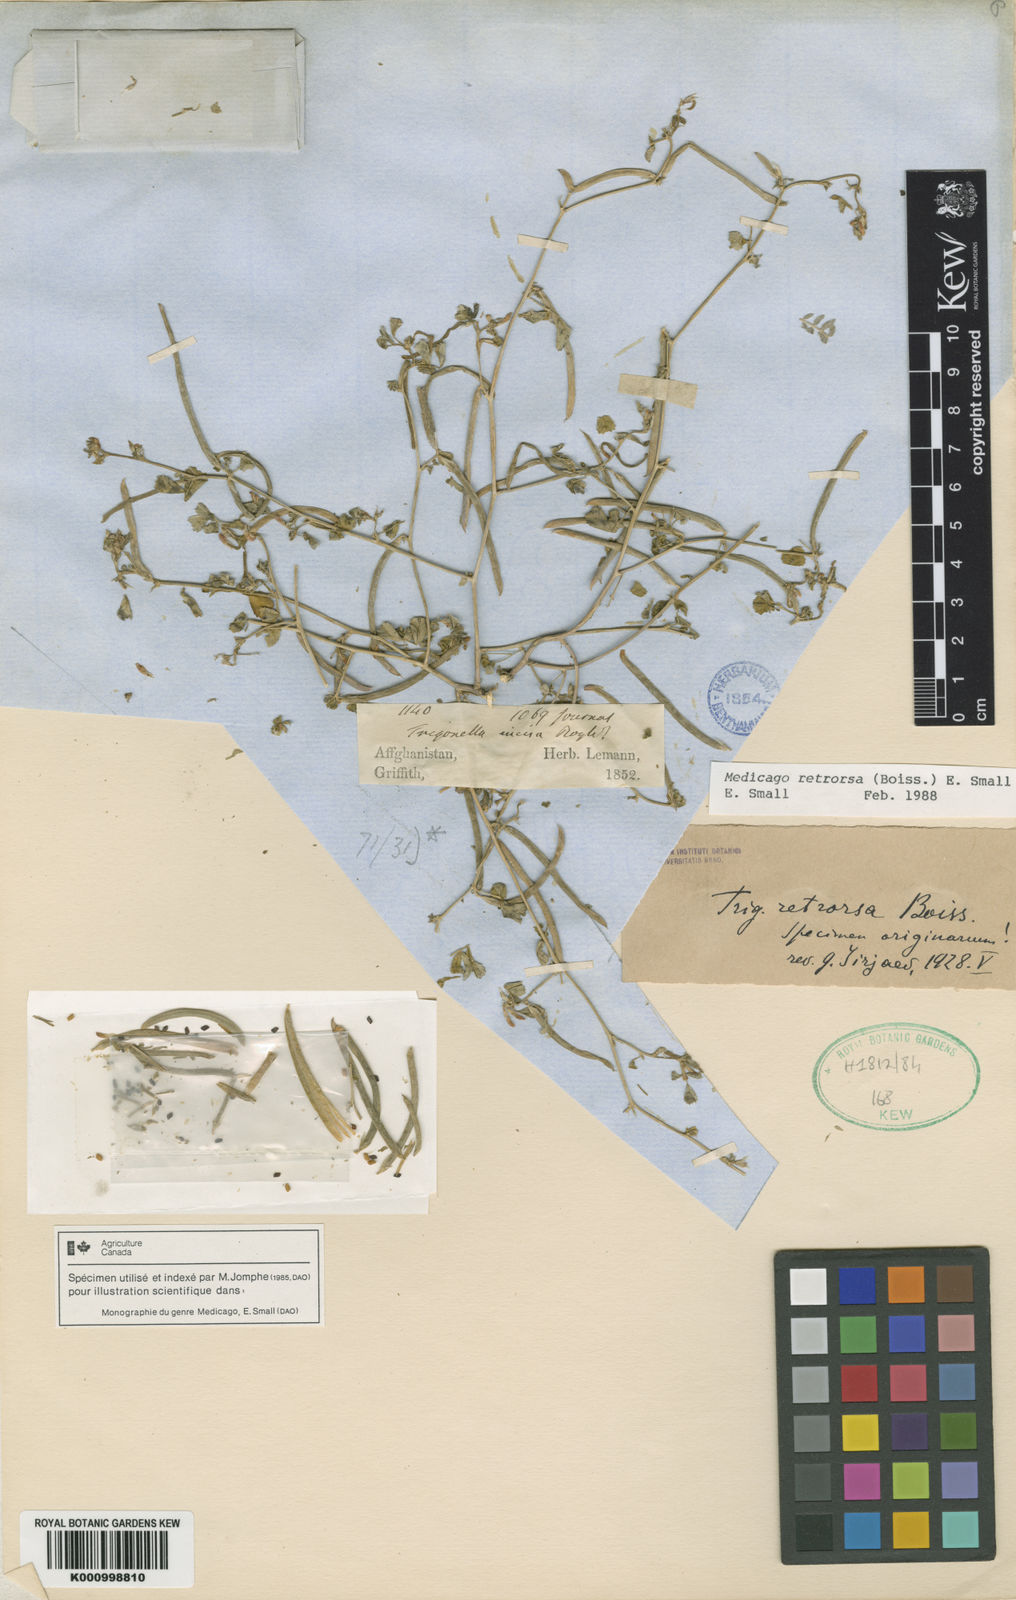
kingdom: Plantae
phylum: Tracheophyta
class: Magnoliopsida
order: Fabales
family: Fabaceae
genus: Medicago
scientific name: Medicago retrorsa
